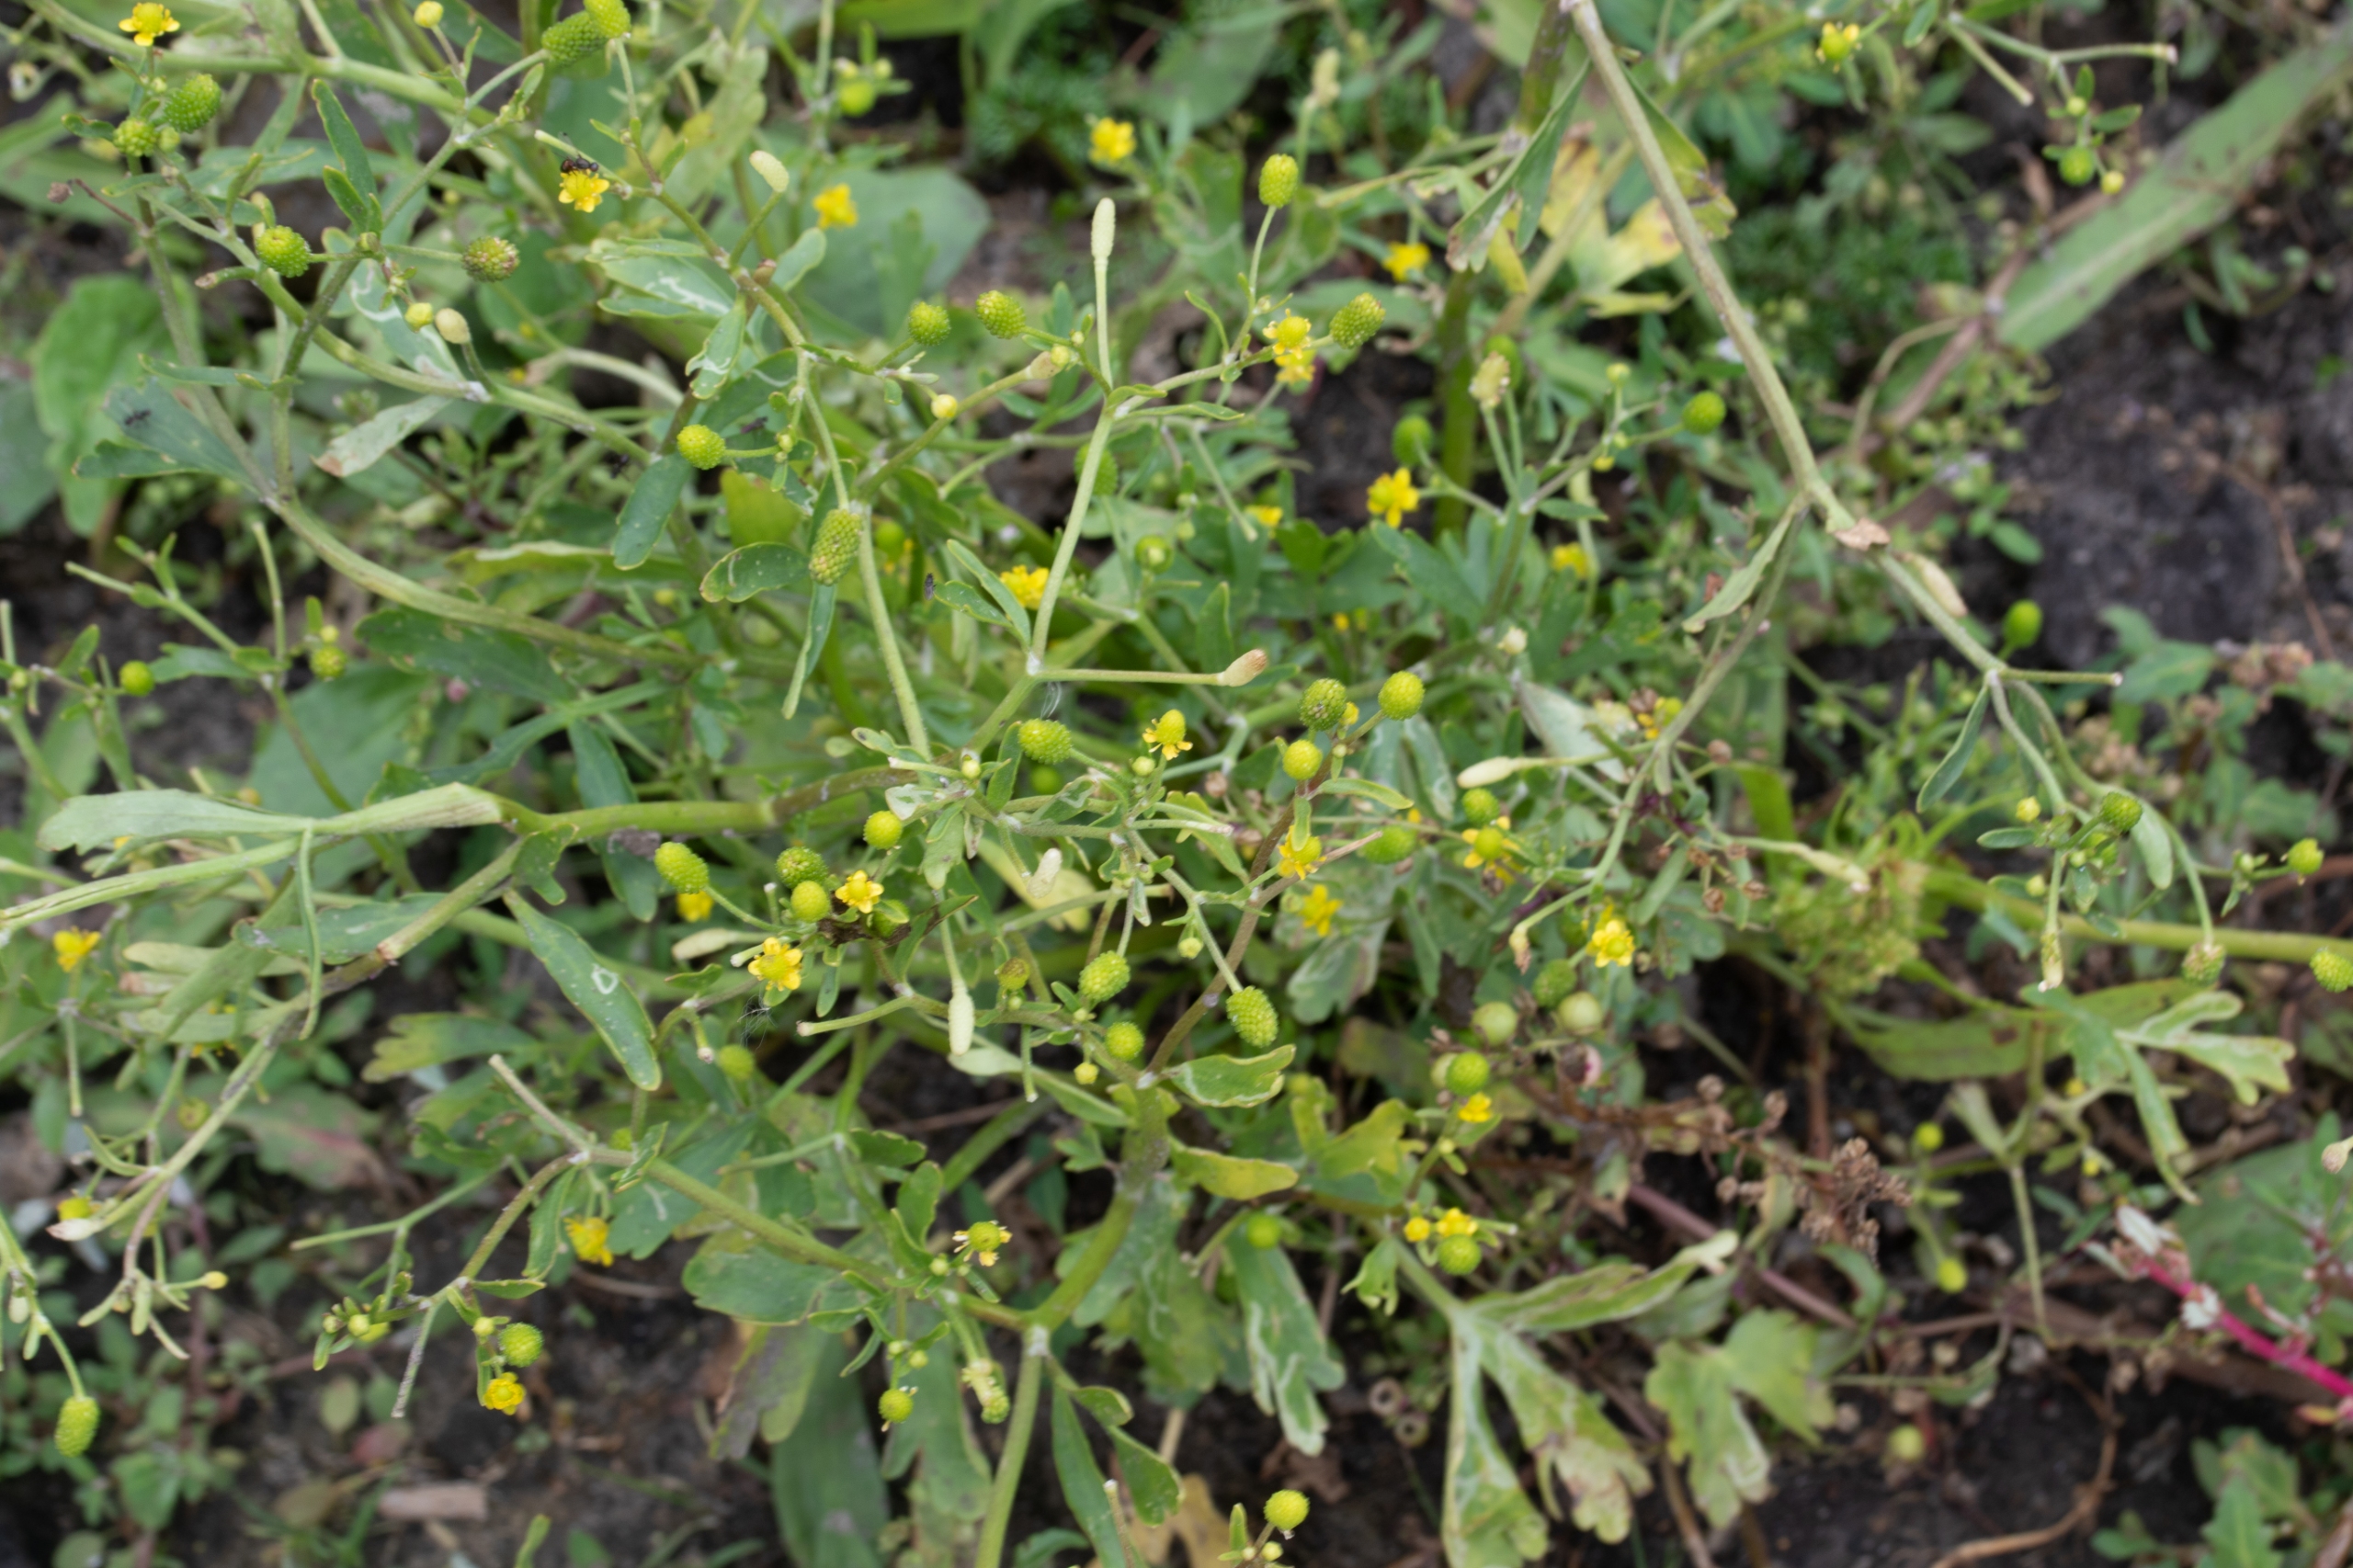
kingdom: Plantae
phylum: Tracheophyta
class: Magnoliopsida
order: Ranunculales
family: Ranunculaceae
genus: Ranunculus
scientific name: Ranunculus sceleratus
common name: Tigger-ranunkel
